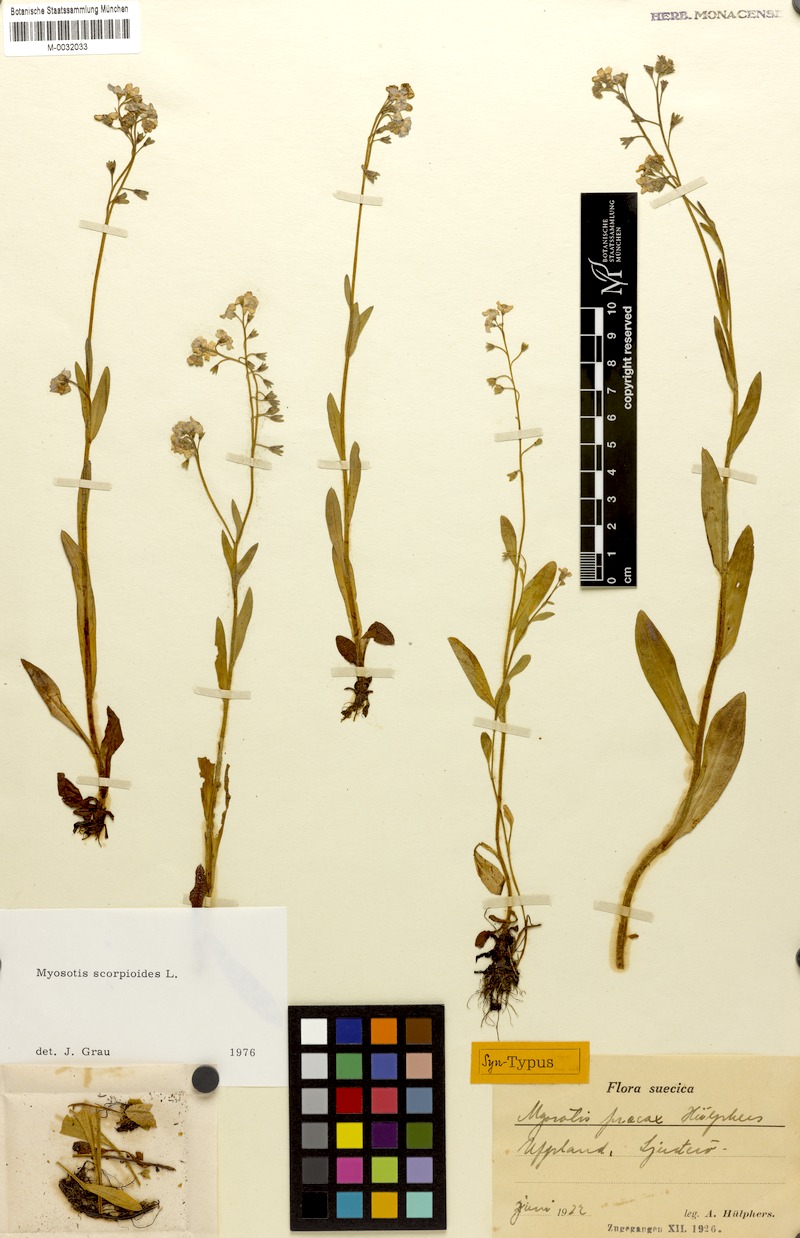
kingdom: Plantae
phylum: Tracheophyta
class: Magnoliopsida
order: Boraginales
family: Boraginaceae
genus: Myosotis
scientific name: Myosotis praecox
